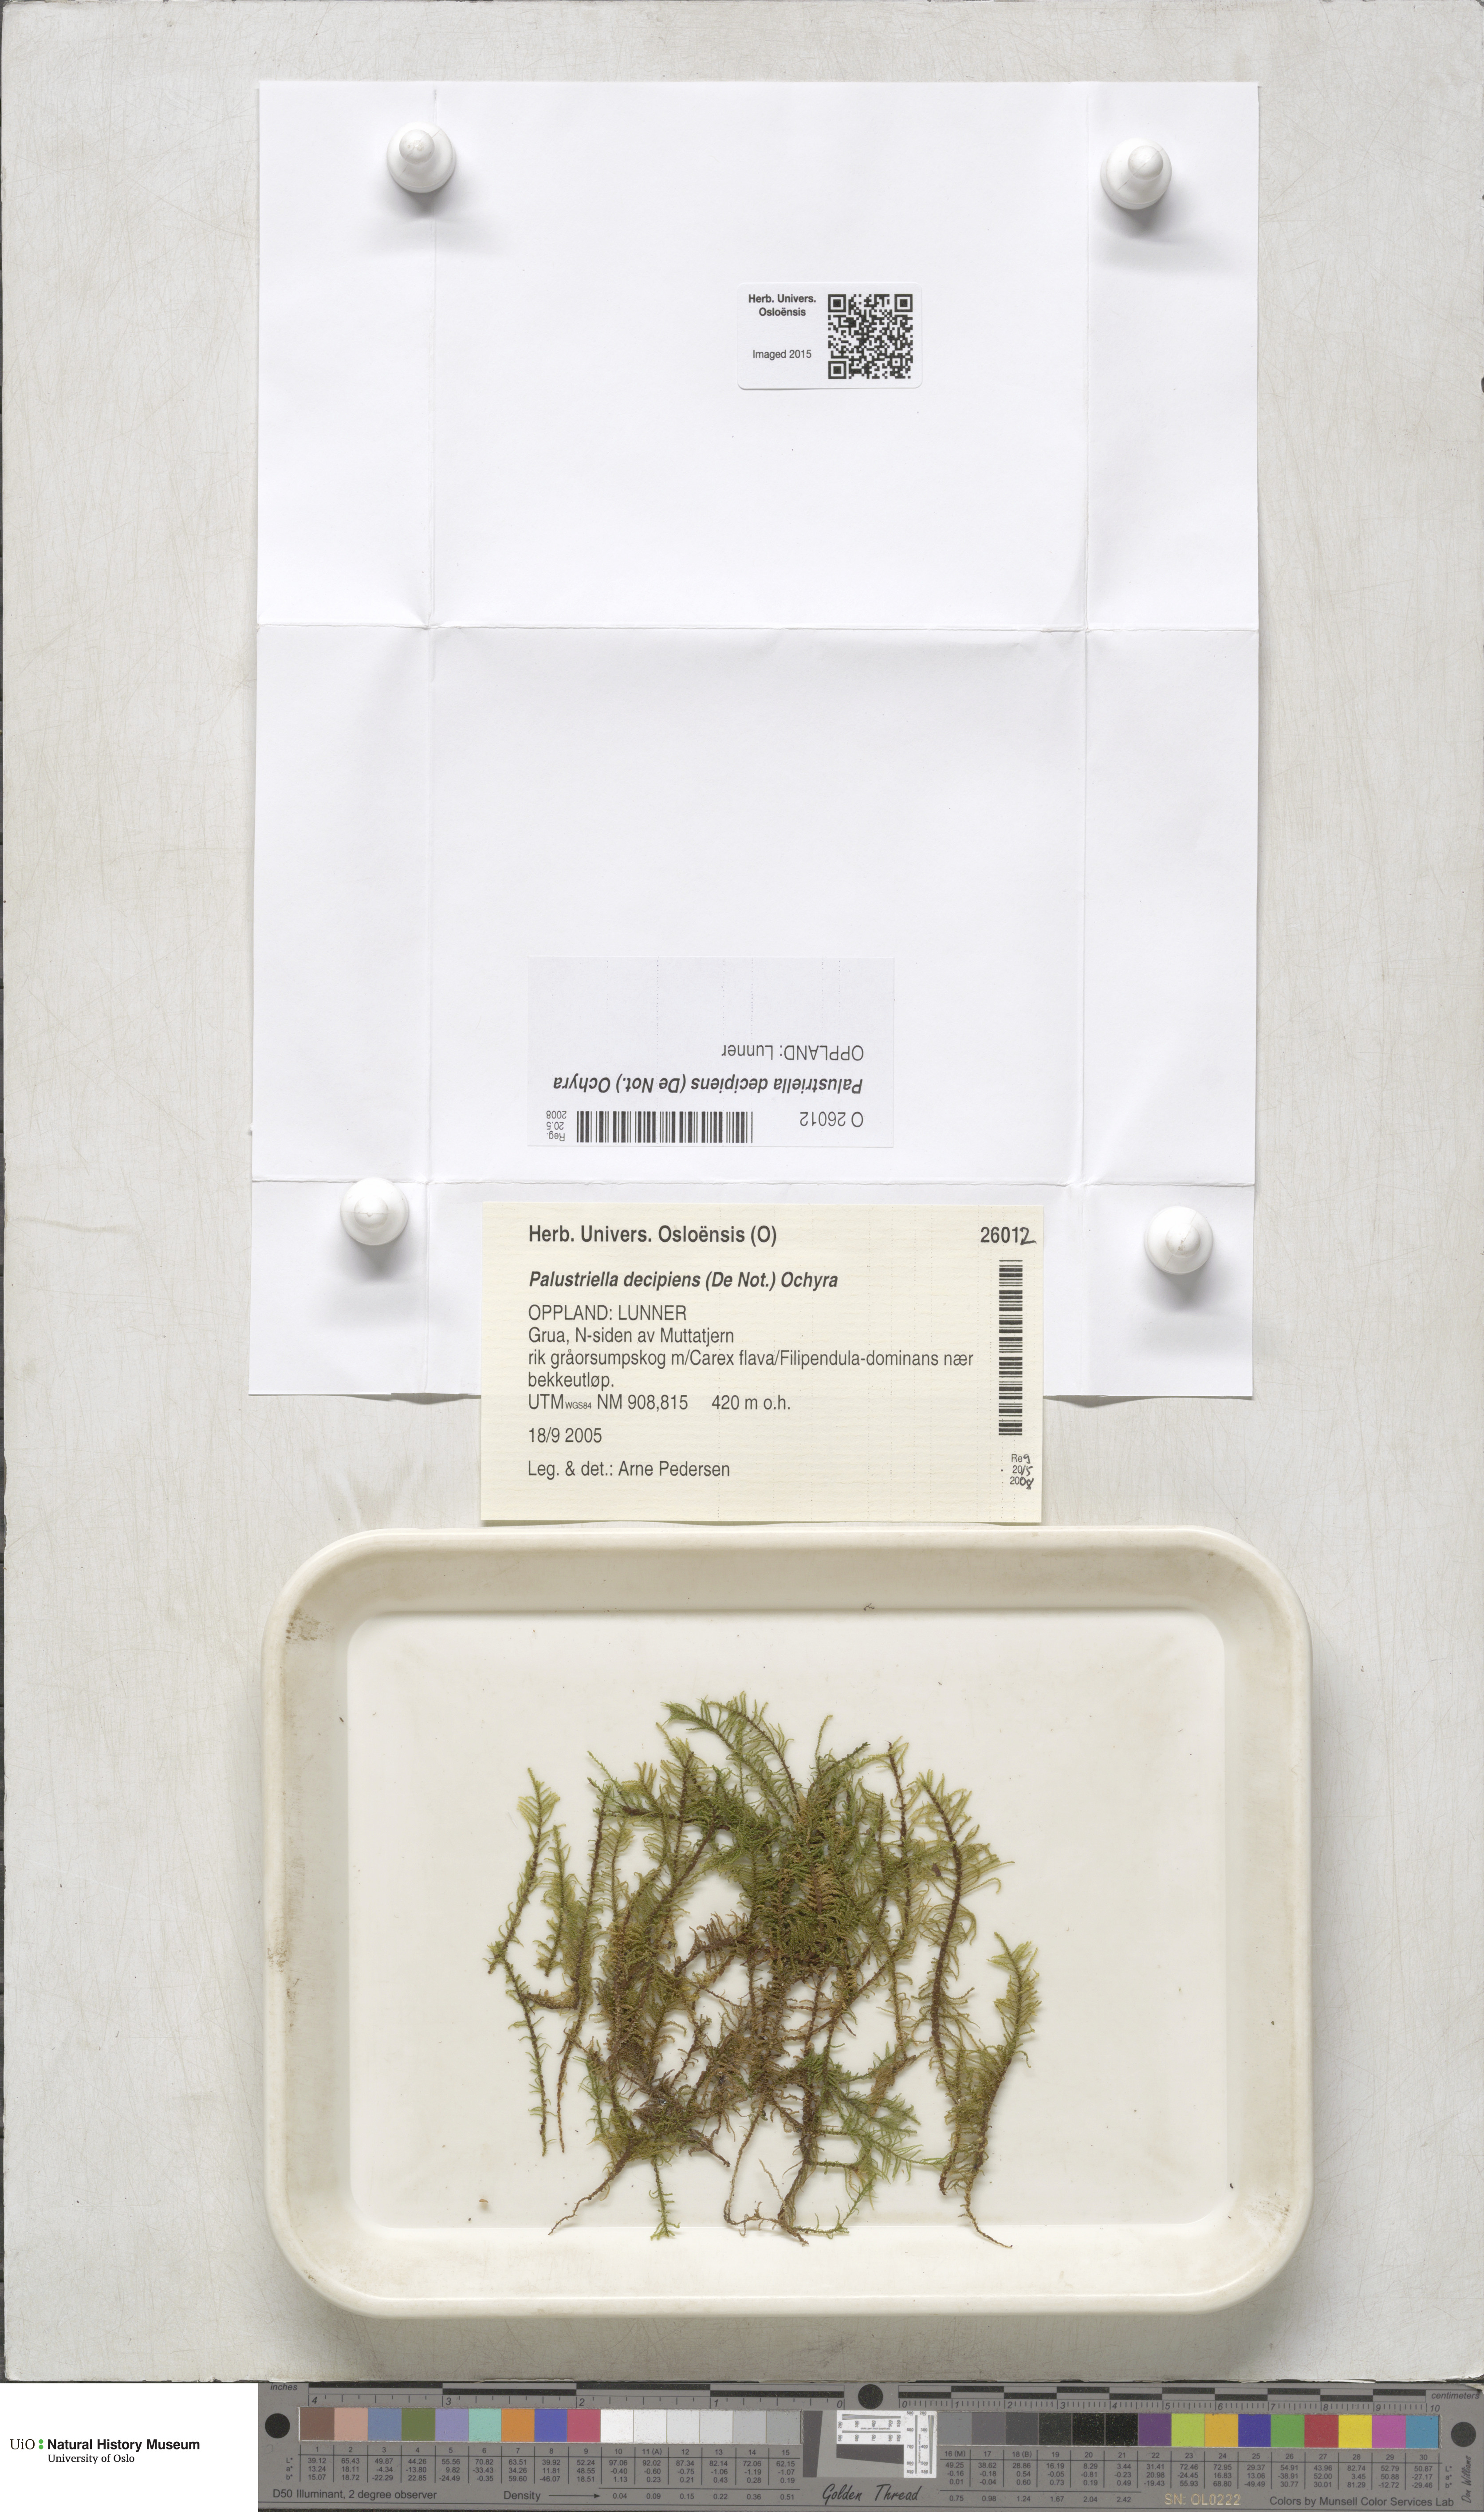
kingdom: Plantae
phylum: Bryophyta
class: Bryopsida
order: Hypnales
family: Amblystegiaceae
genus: Palustriella
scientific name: Palustriella decipiens
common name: Lesser curled hook-moss
